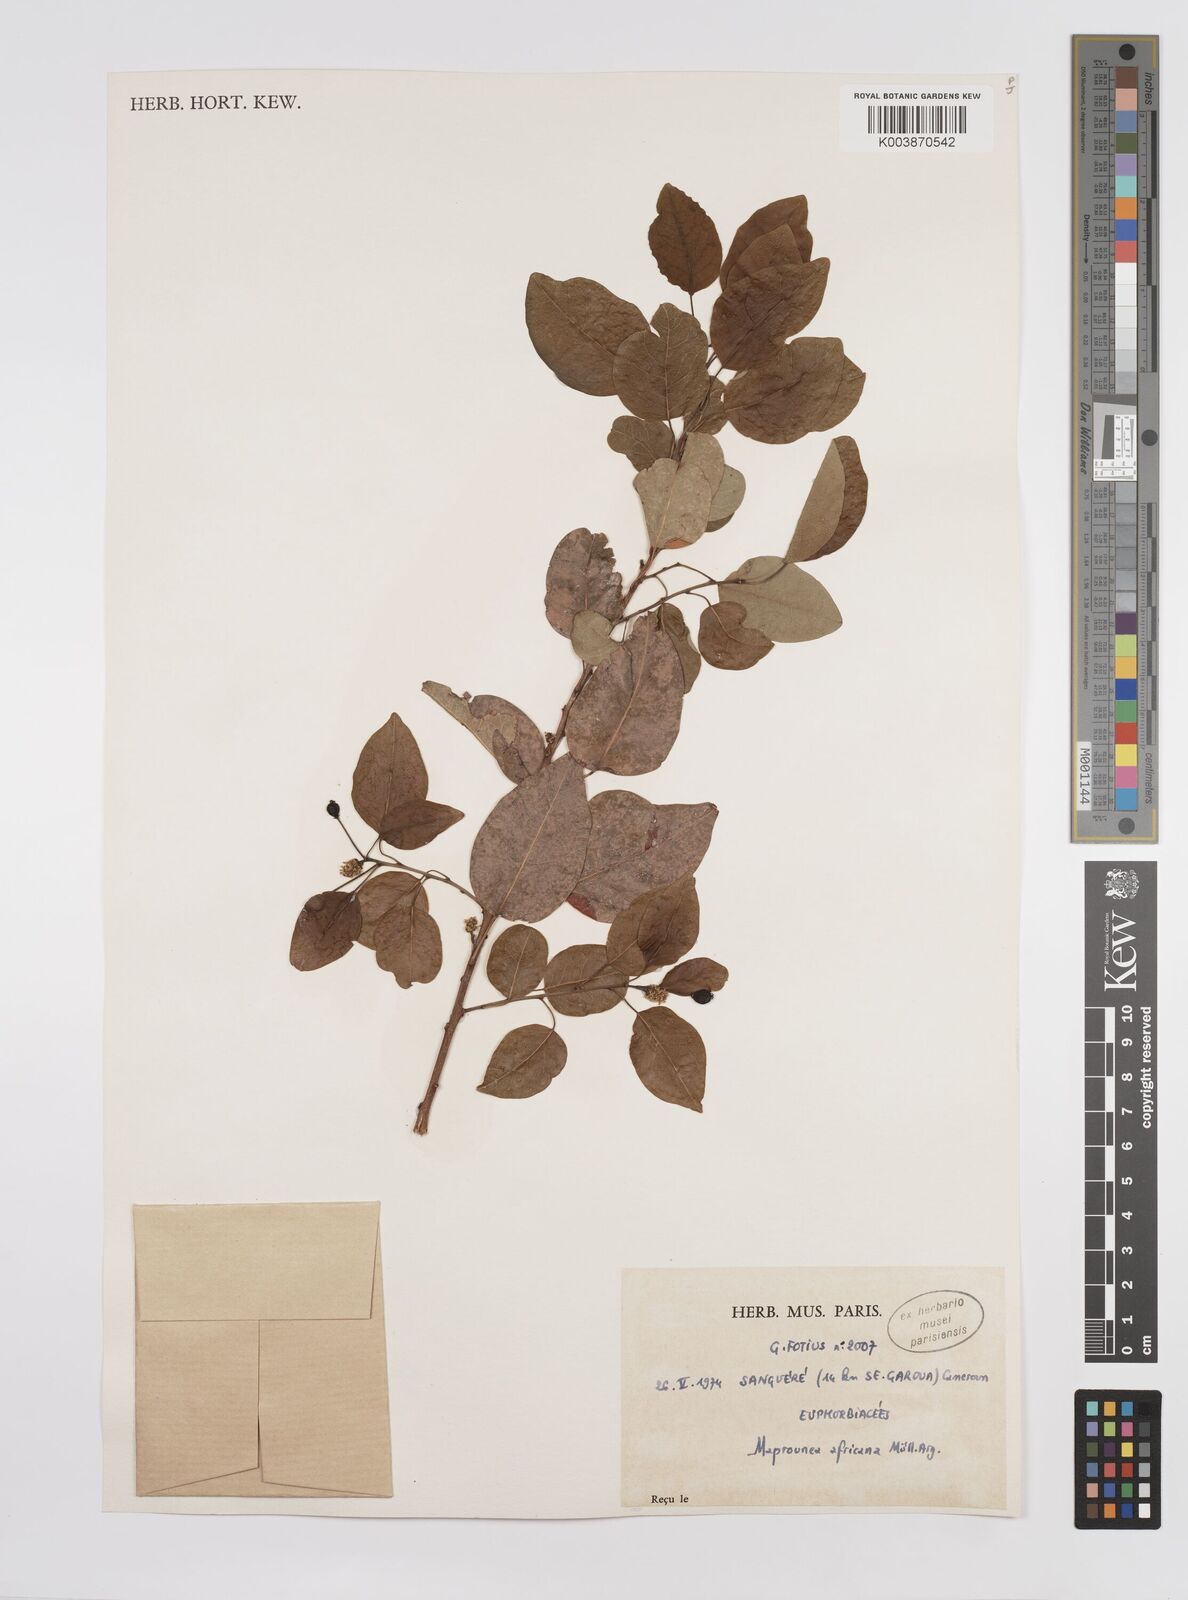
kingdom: Plantae
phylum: Tracheophyta
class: Magnoliopsida
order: Malpighiales
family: Euphorbiaceae
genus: Maprounea
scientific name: Maprounea africana
